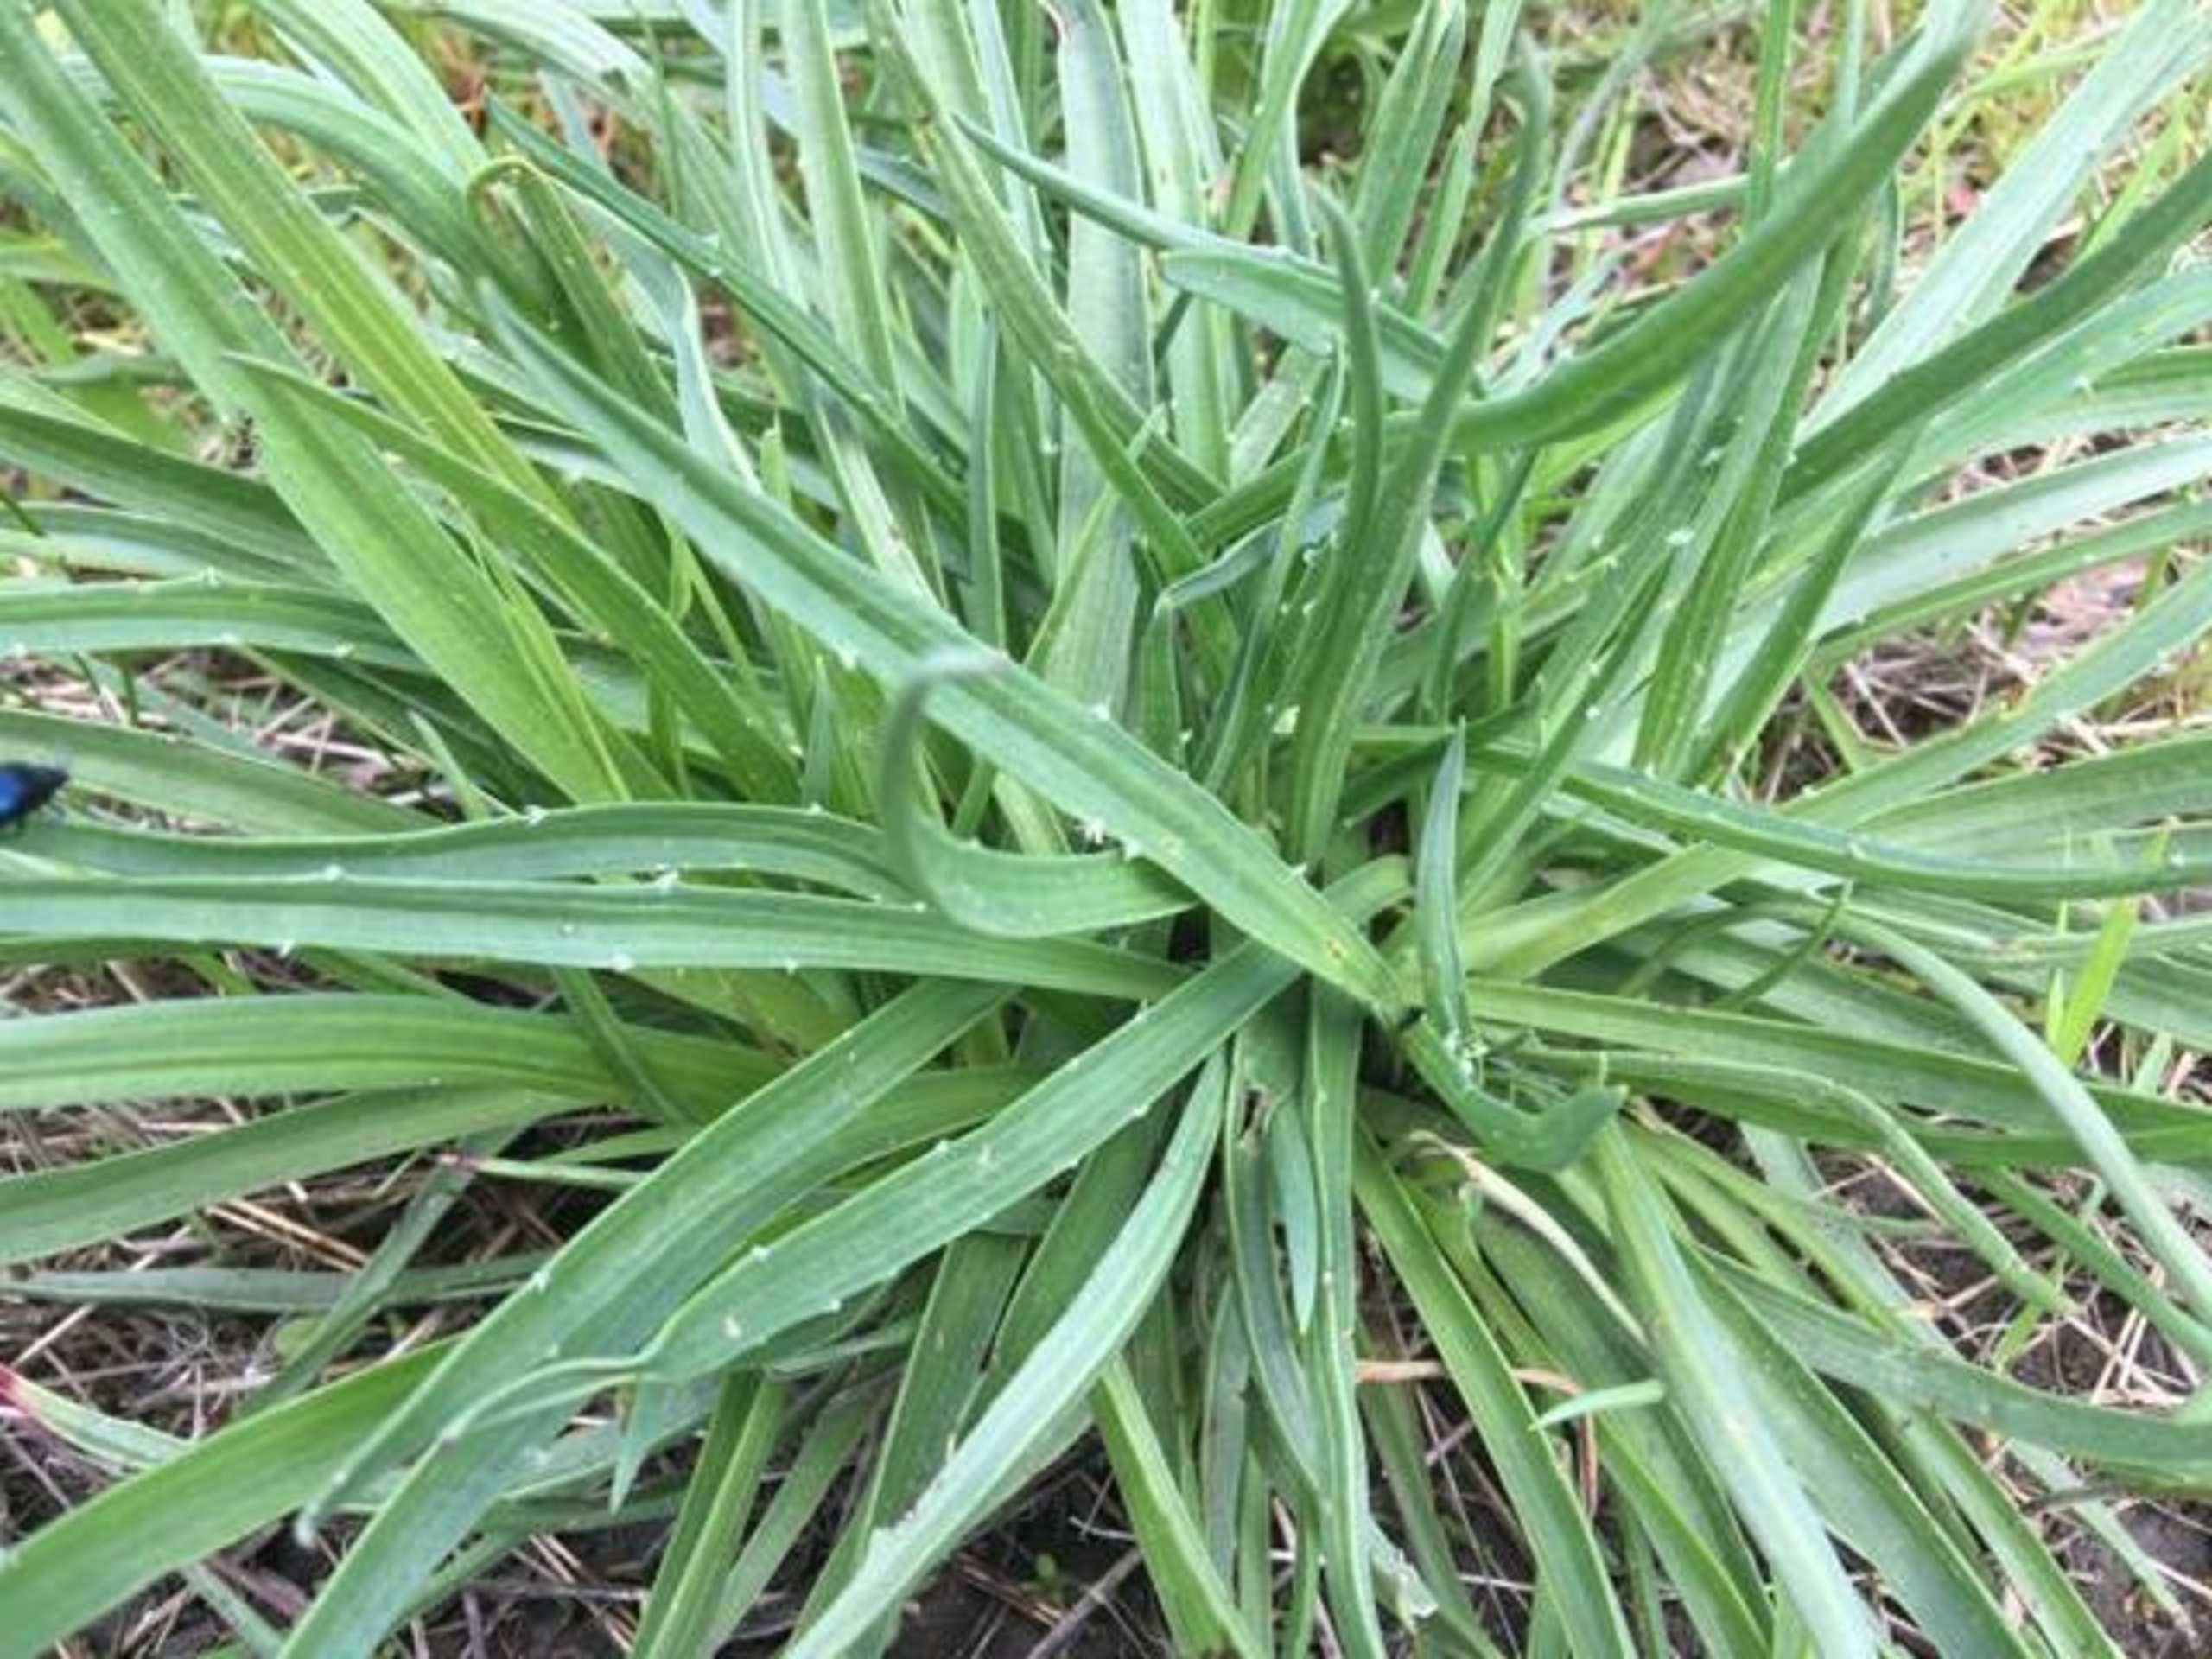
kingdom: Plantae
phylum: Tracheophyta
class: Magnoliopsida
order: Lamiales
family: Plantaginaceae
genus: Plantago
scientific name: Plantago maritima
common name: Strand-vejbred
